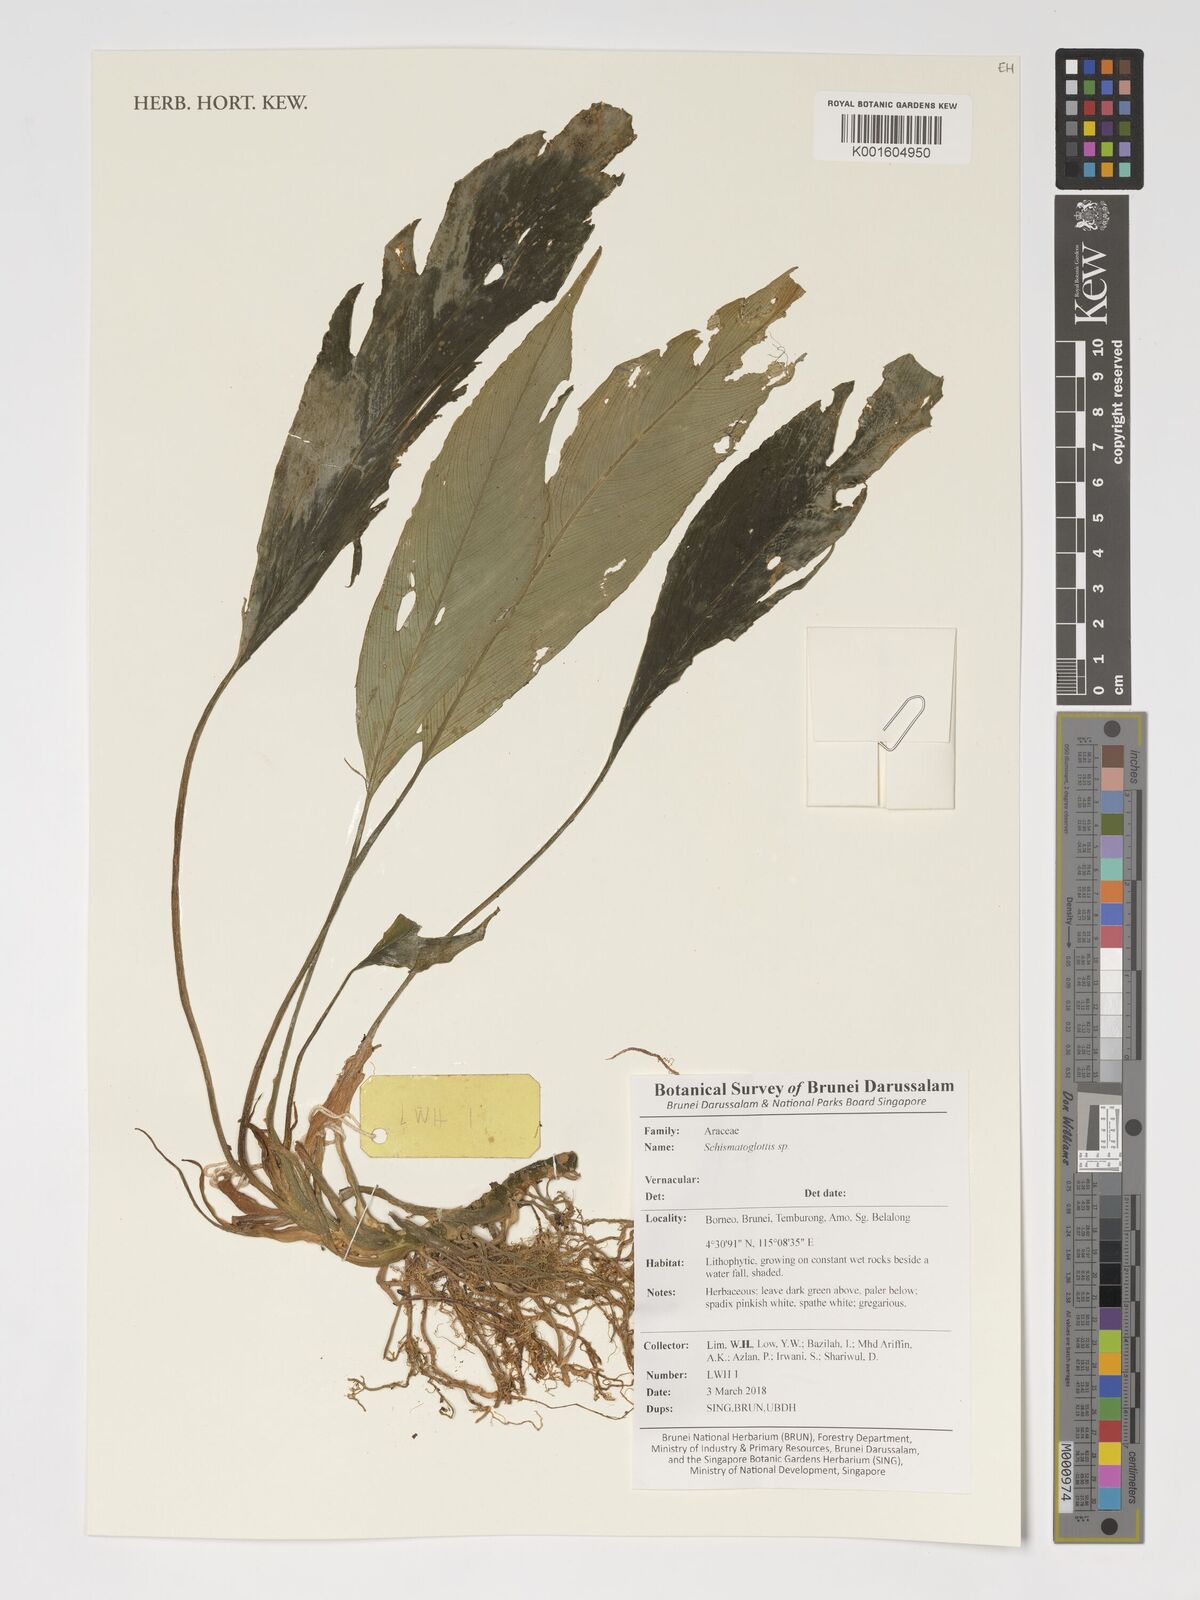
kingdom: Plantae
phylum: Tracheophyta
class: Liliopsida
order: Alismatales
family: Araceae
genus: Schismatoglottis
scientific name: Schismatoglottis
